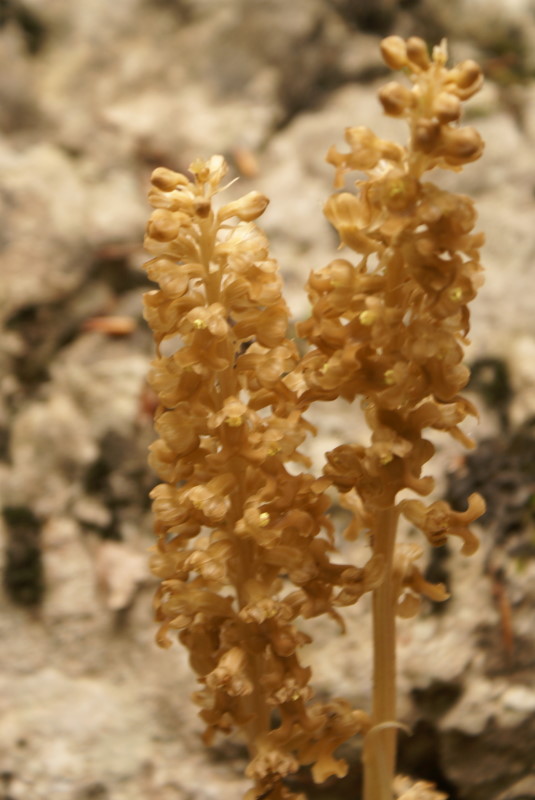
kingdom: Plantae
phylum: Tracheophyta
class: Magnoliopsida
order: Lamiales
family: Orobanchaceae
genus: Lathraea
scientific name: Lathraea
